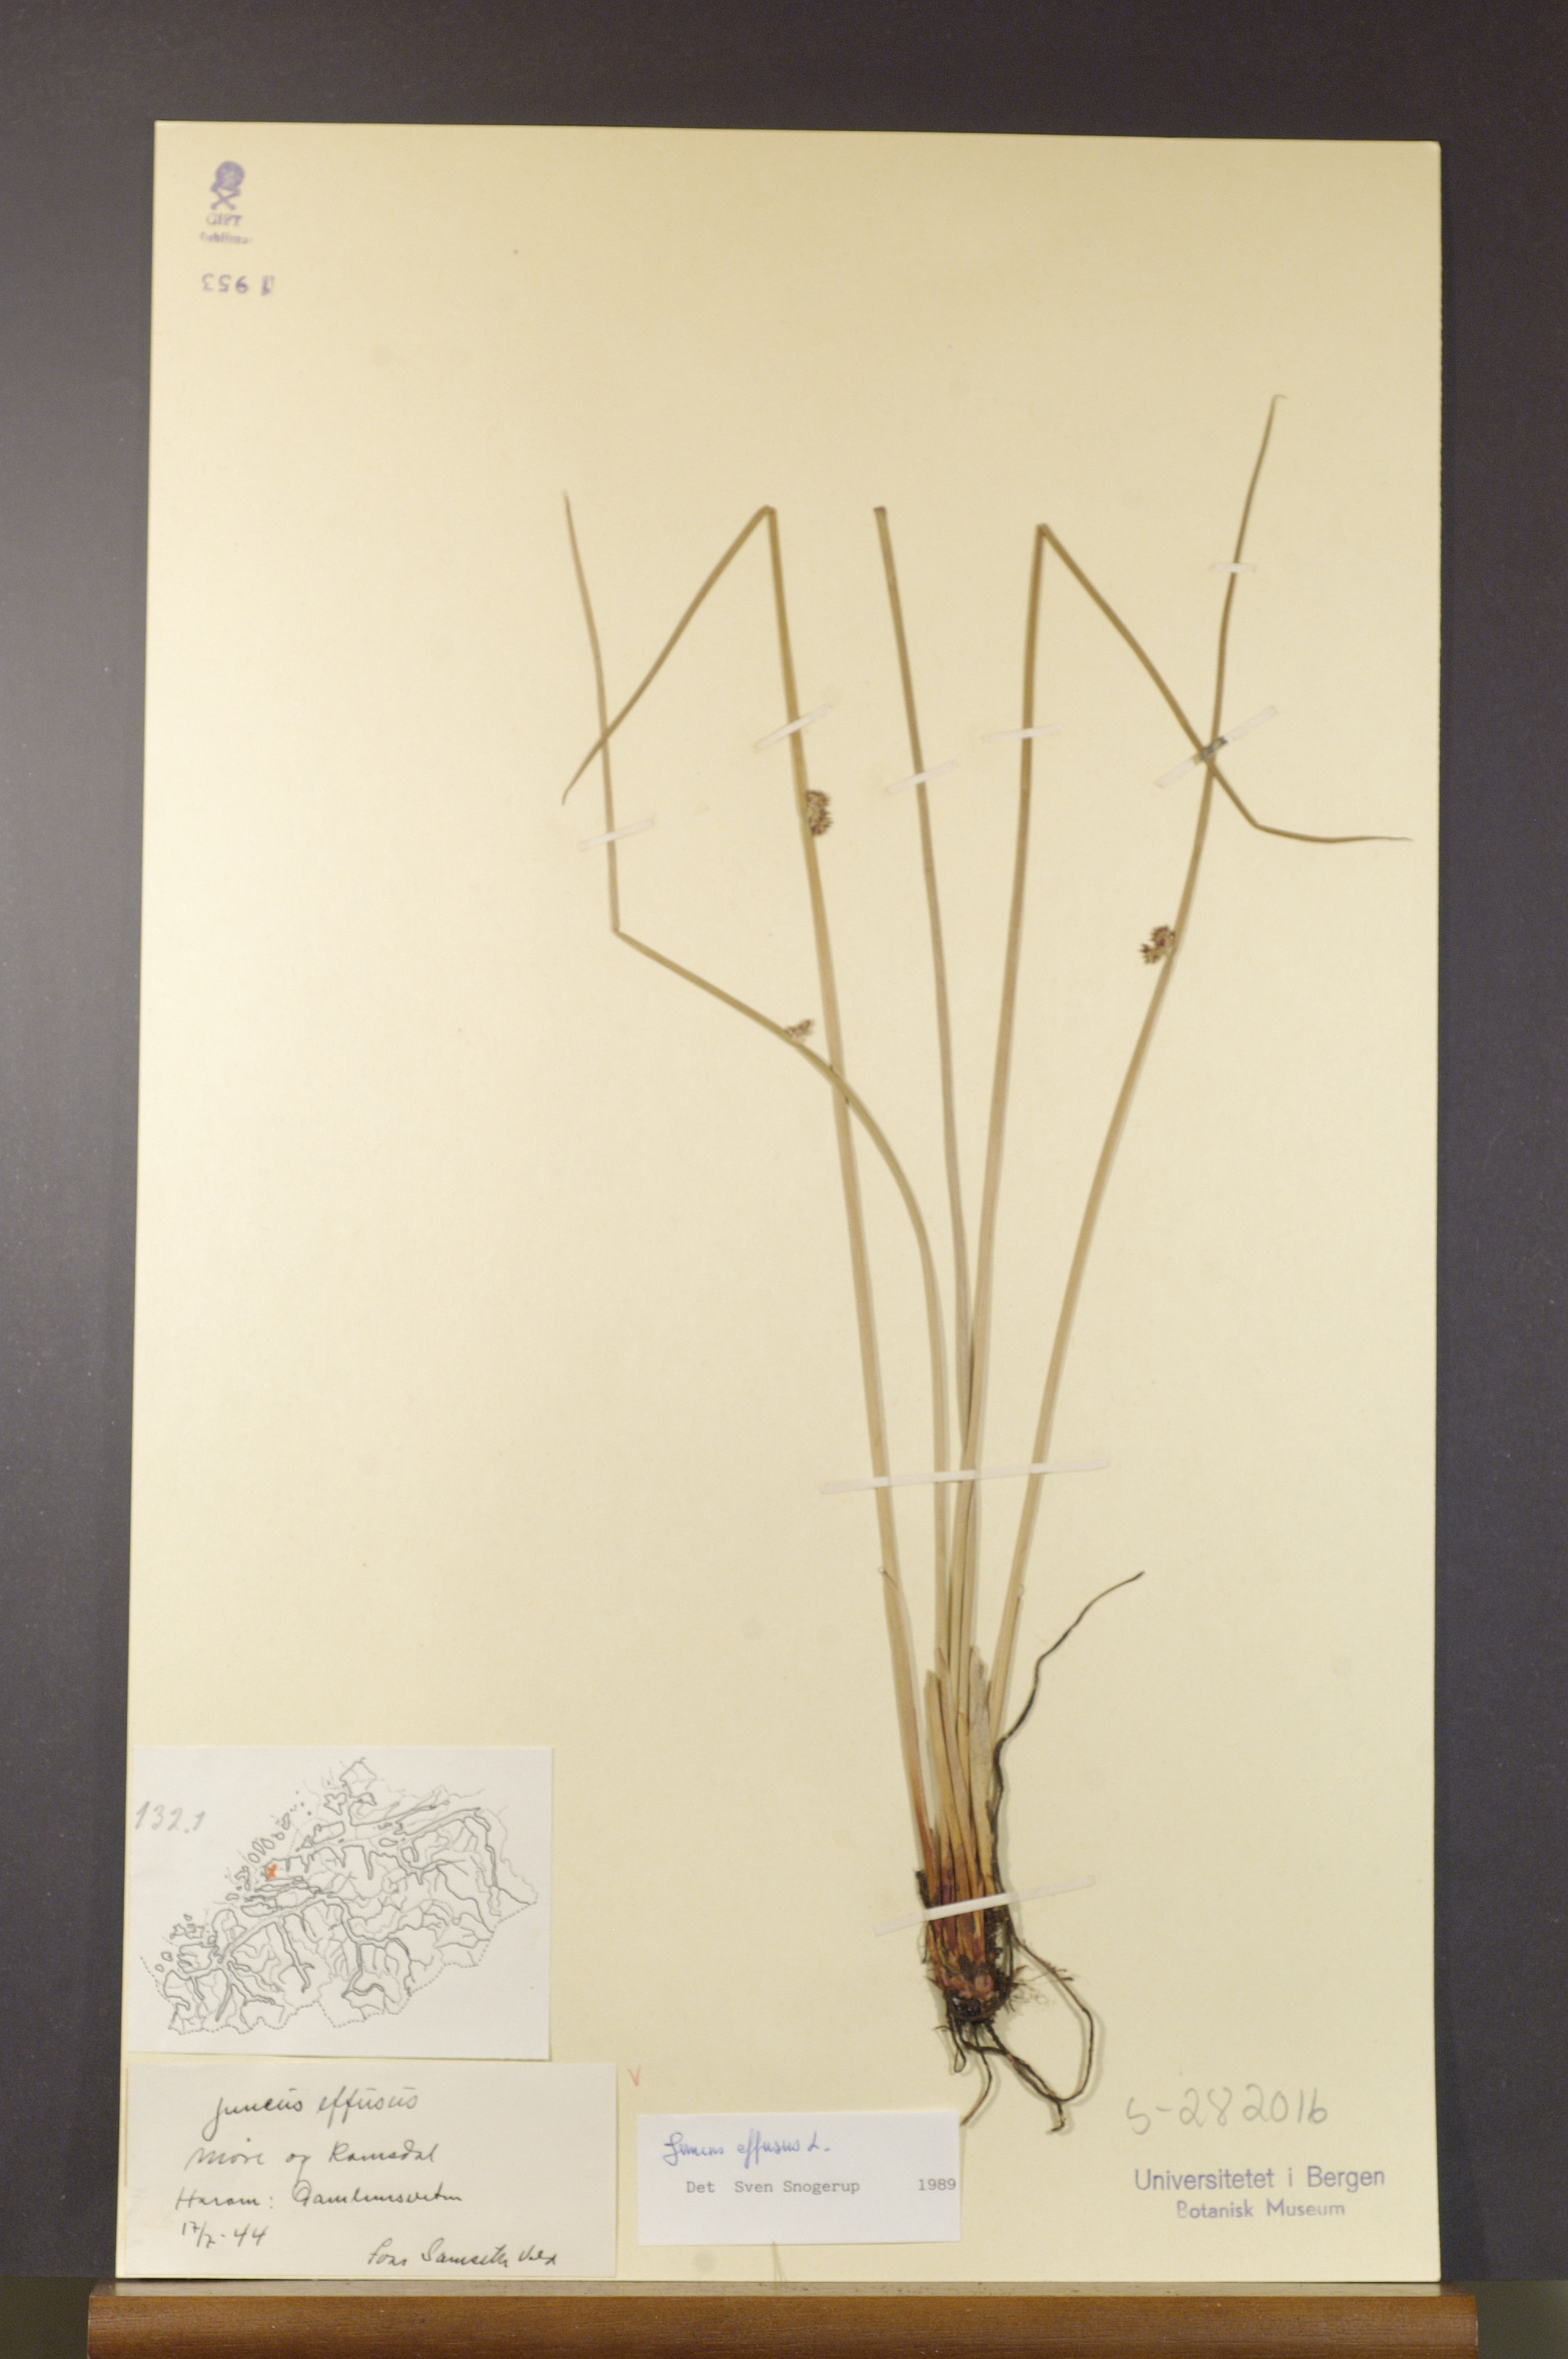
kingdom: Plantae
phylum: Tracheophyta
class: Liliopsida
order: Poales
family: Juncaceae
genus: Juncus
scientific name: Juncus effusus
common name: Soft rush
